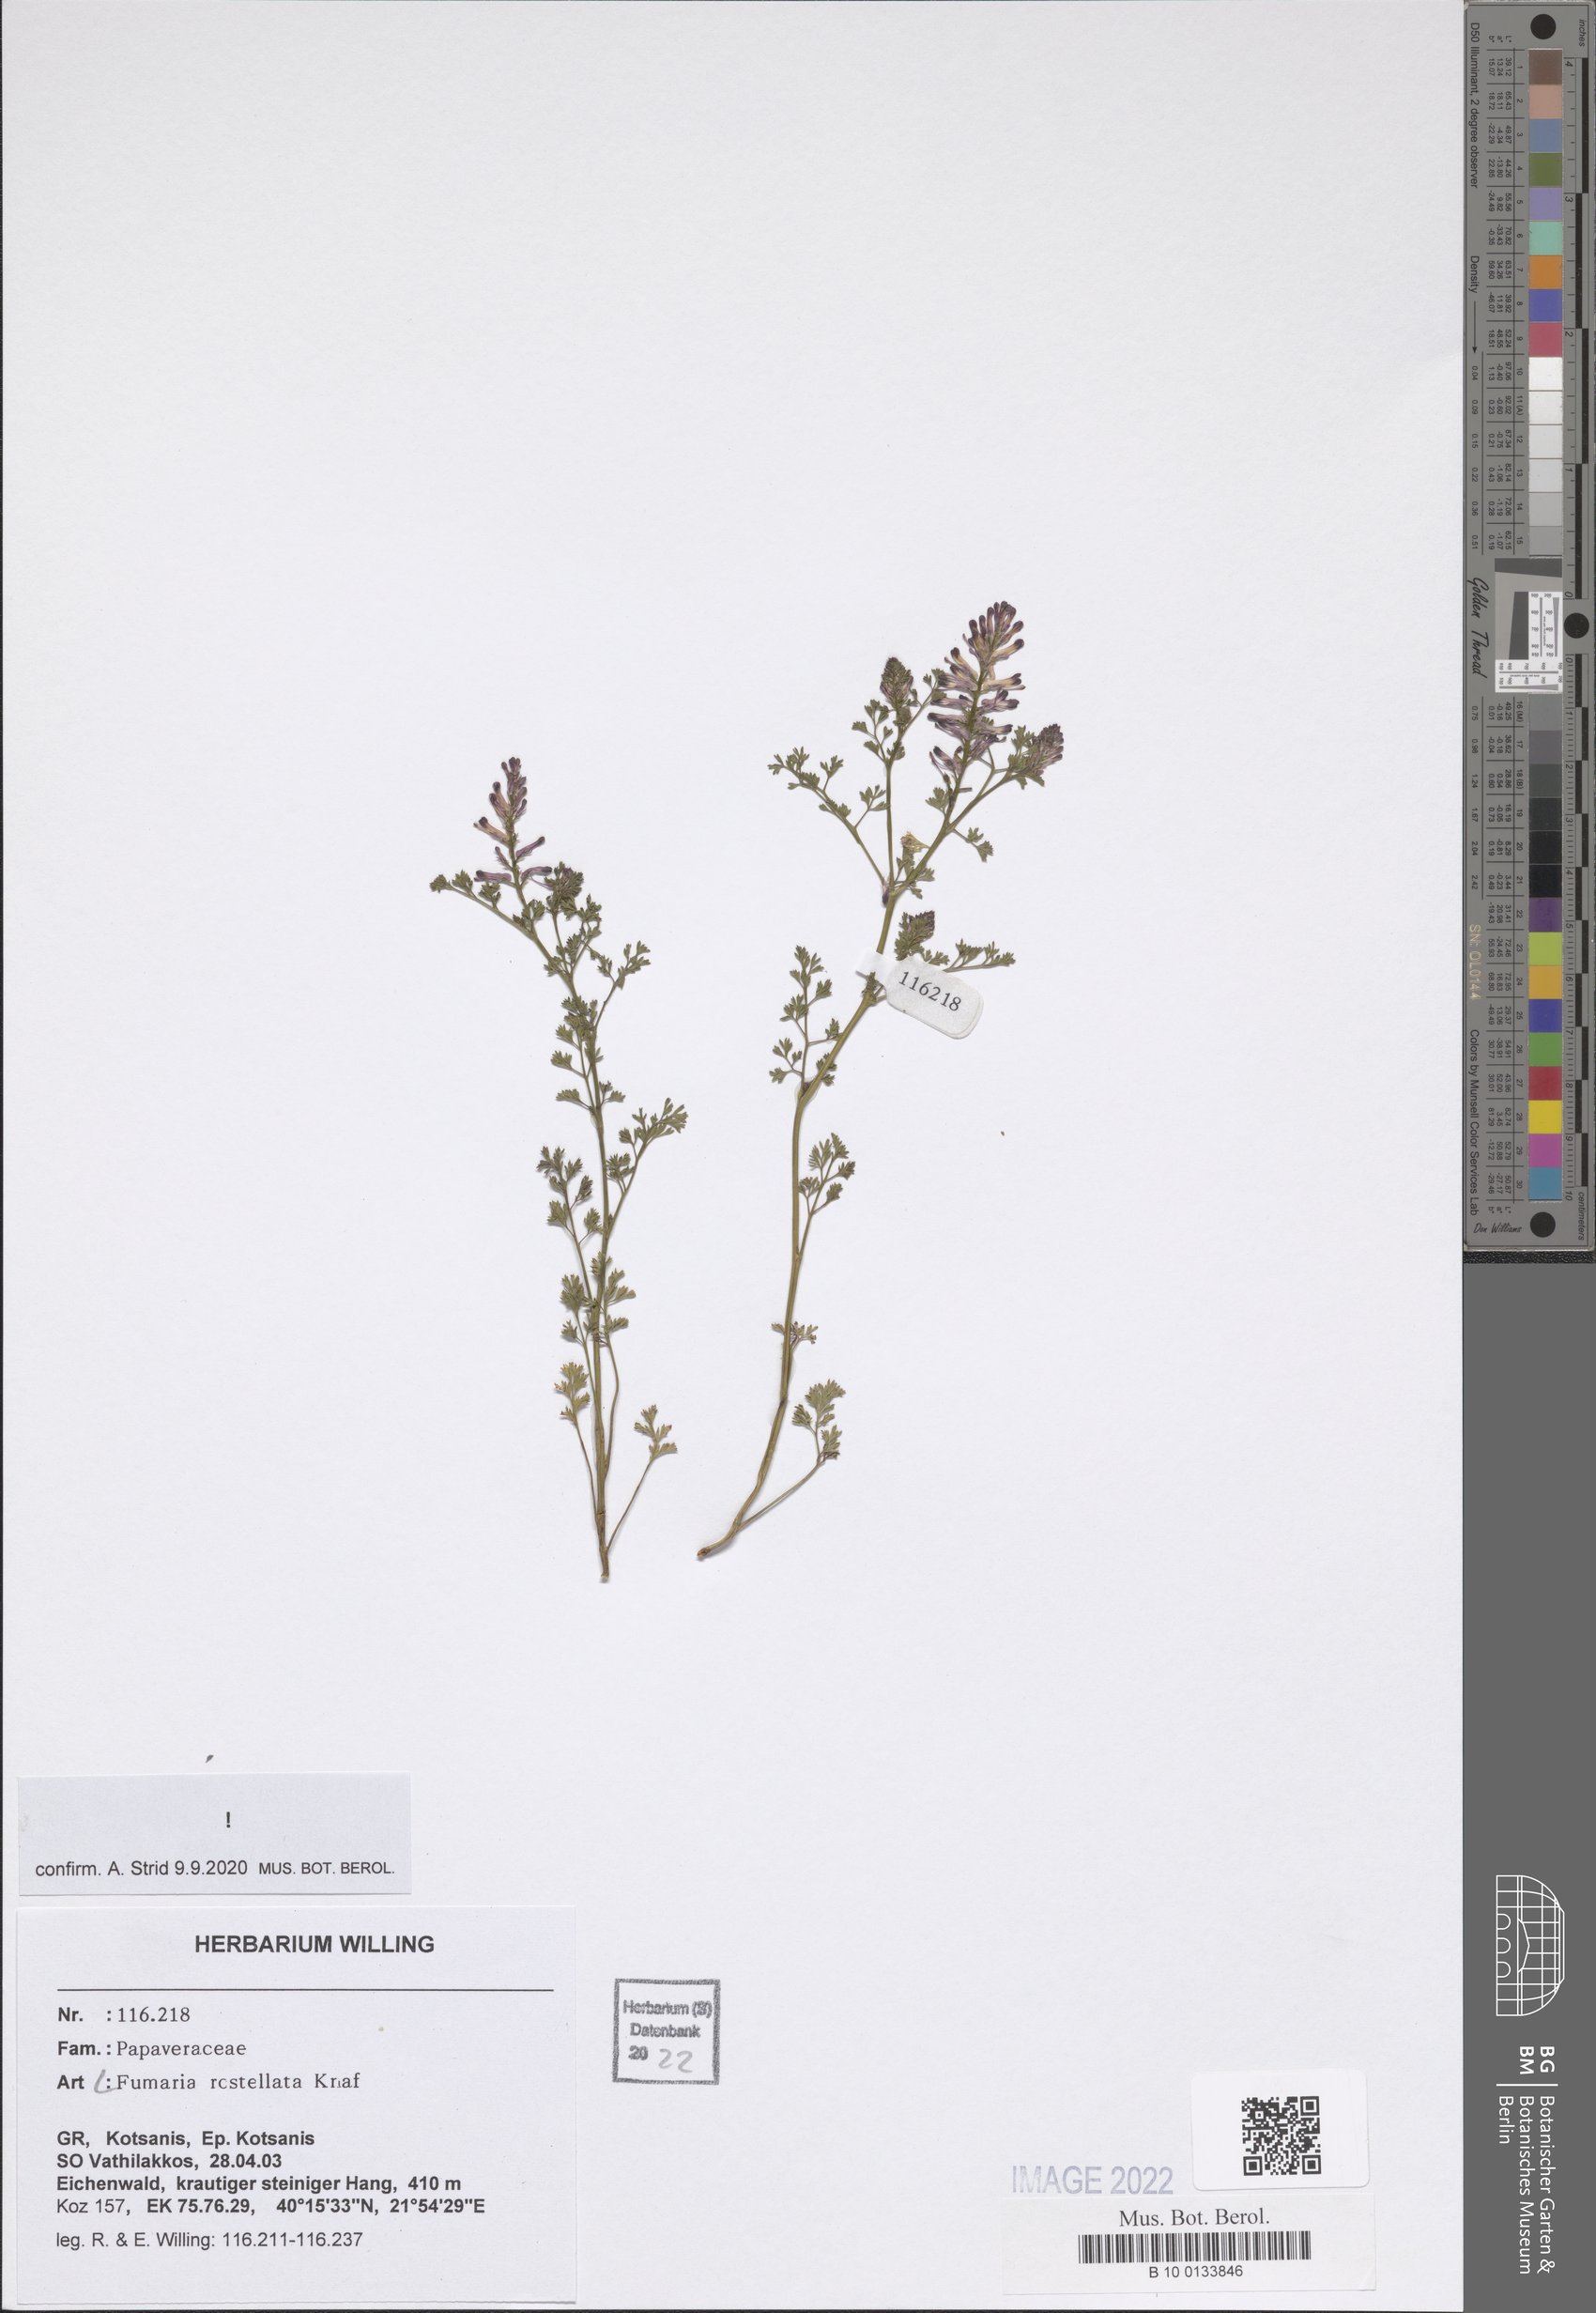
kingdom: Plantae
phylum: Tracheophyta
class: Magnoliopsida
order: Ranunculales
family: Papaveraceae
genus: Fumaria
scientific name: Fumaria rostellata
